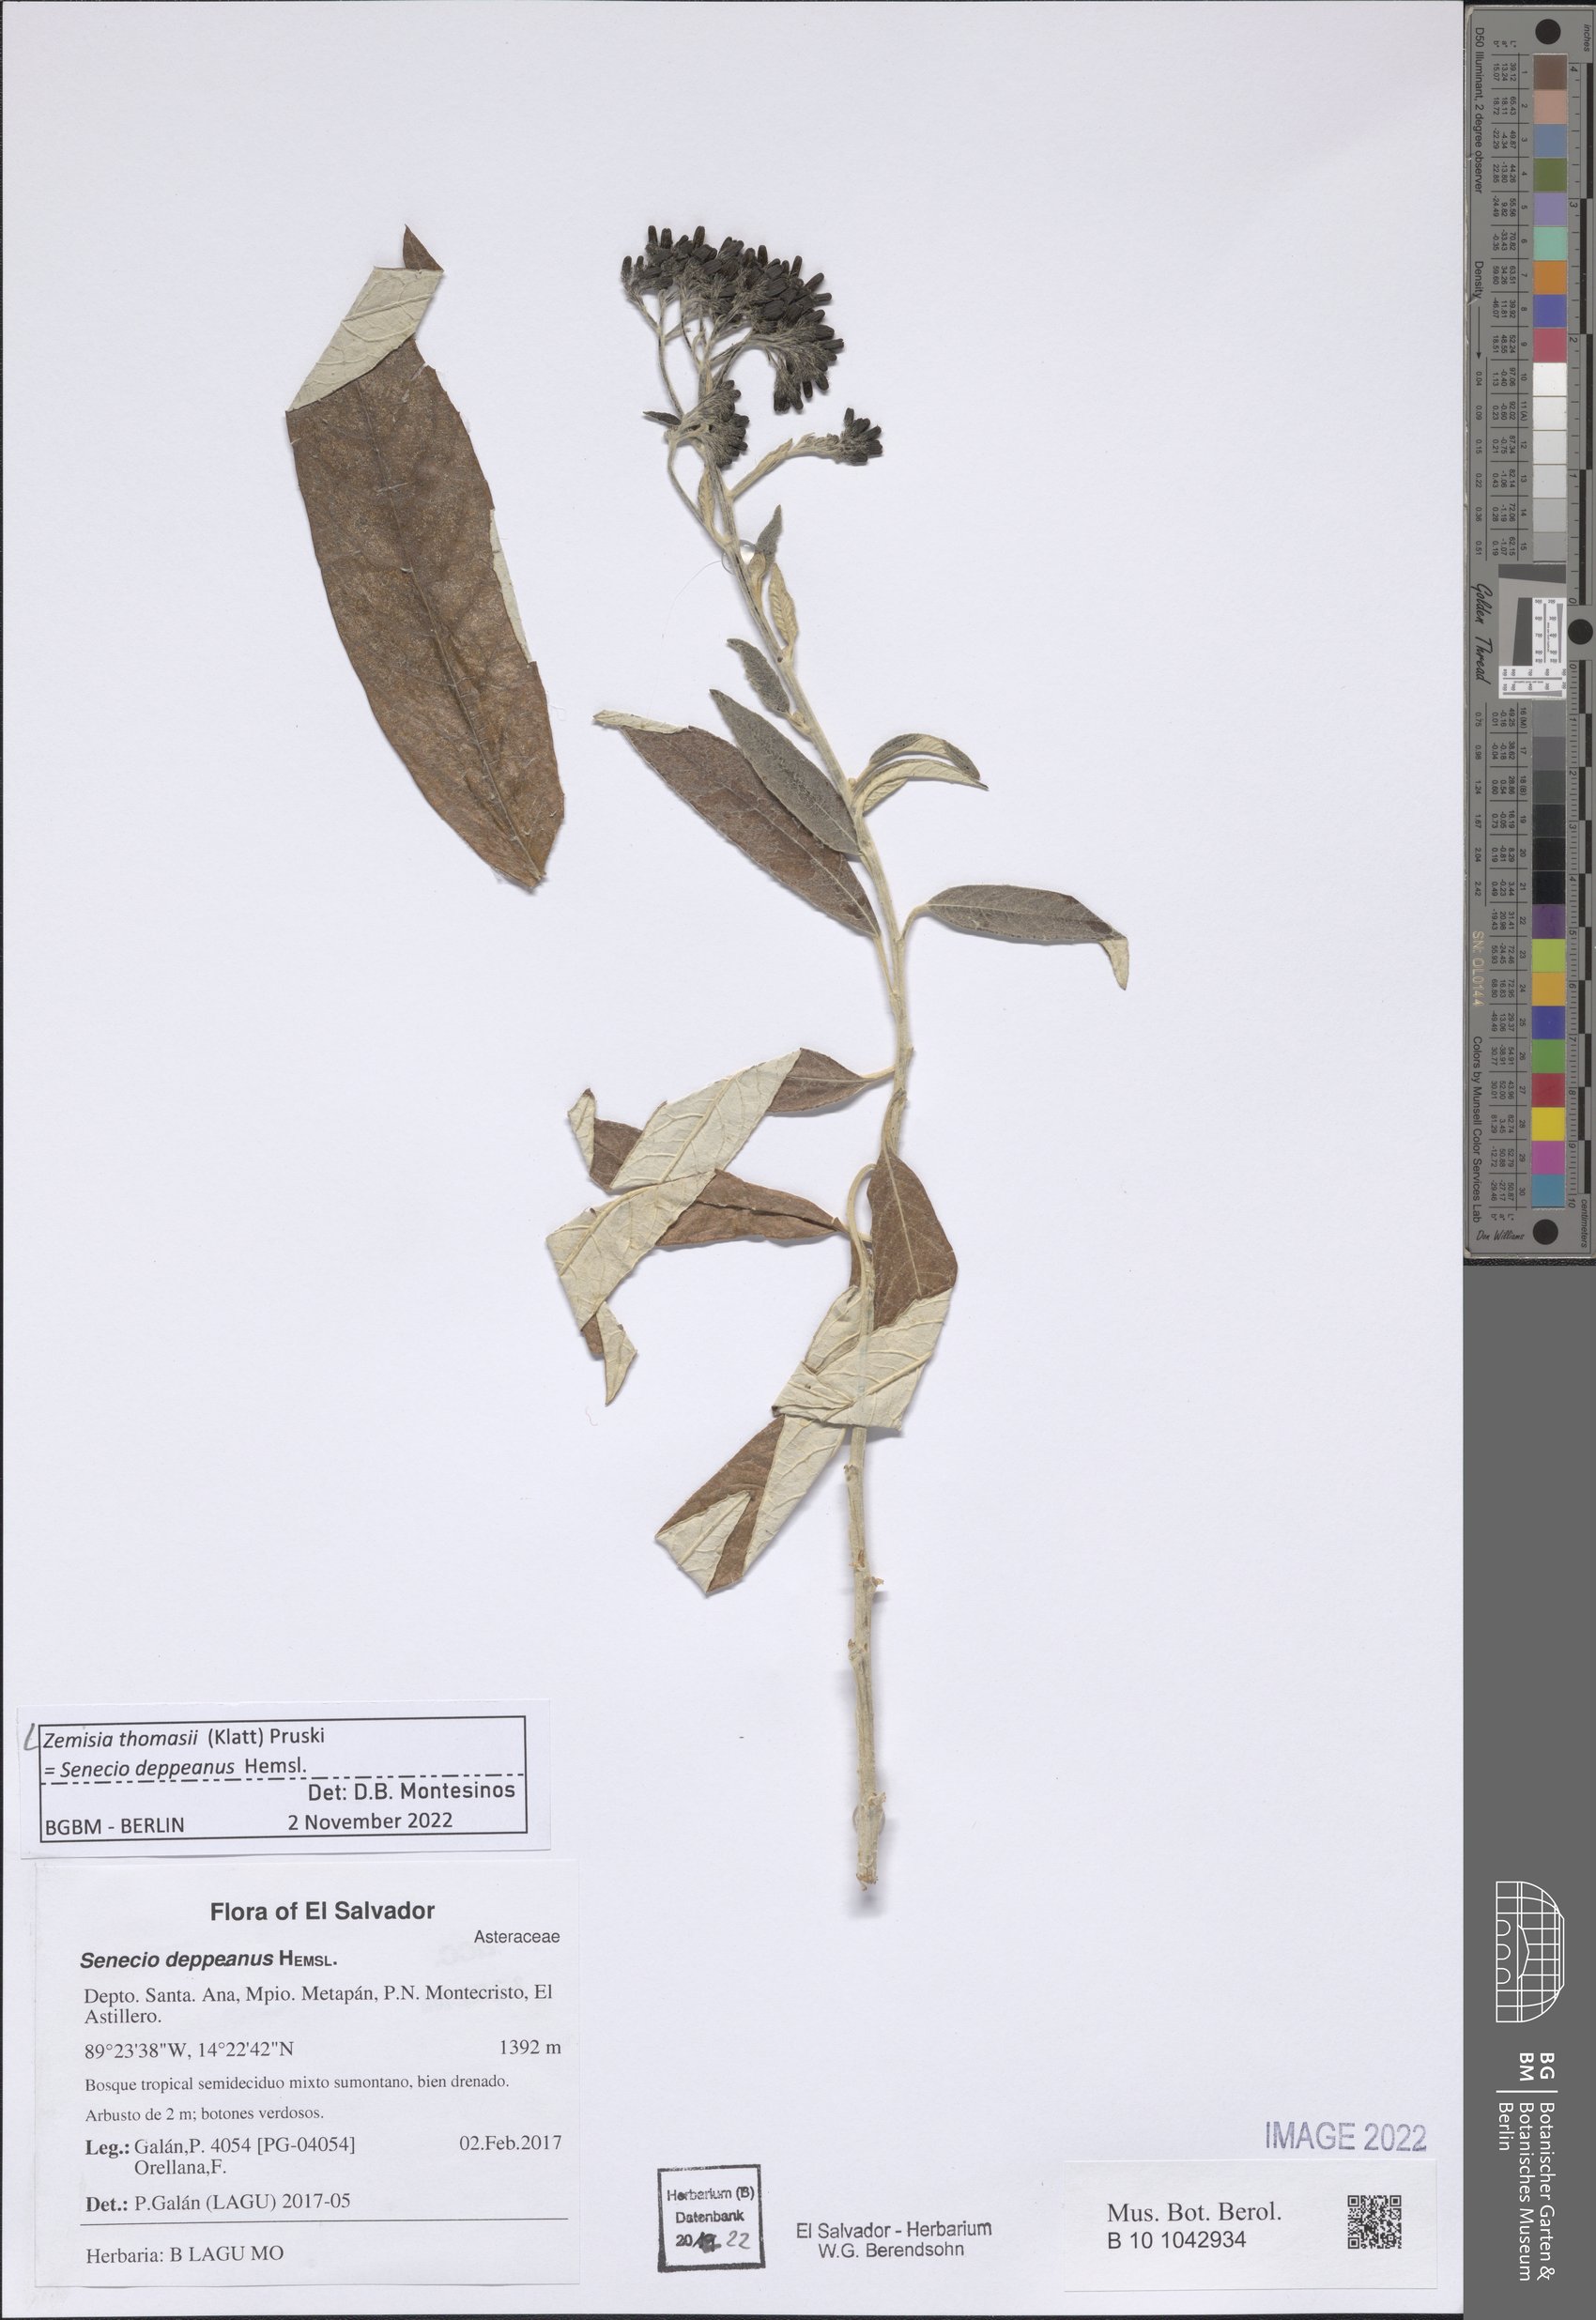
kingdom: Plantae
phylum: Tracheophyta
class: Magnoliopsida
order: Asterales
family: Asteraceae
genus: Zemisia
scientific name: Zemisia thomasii
